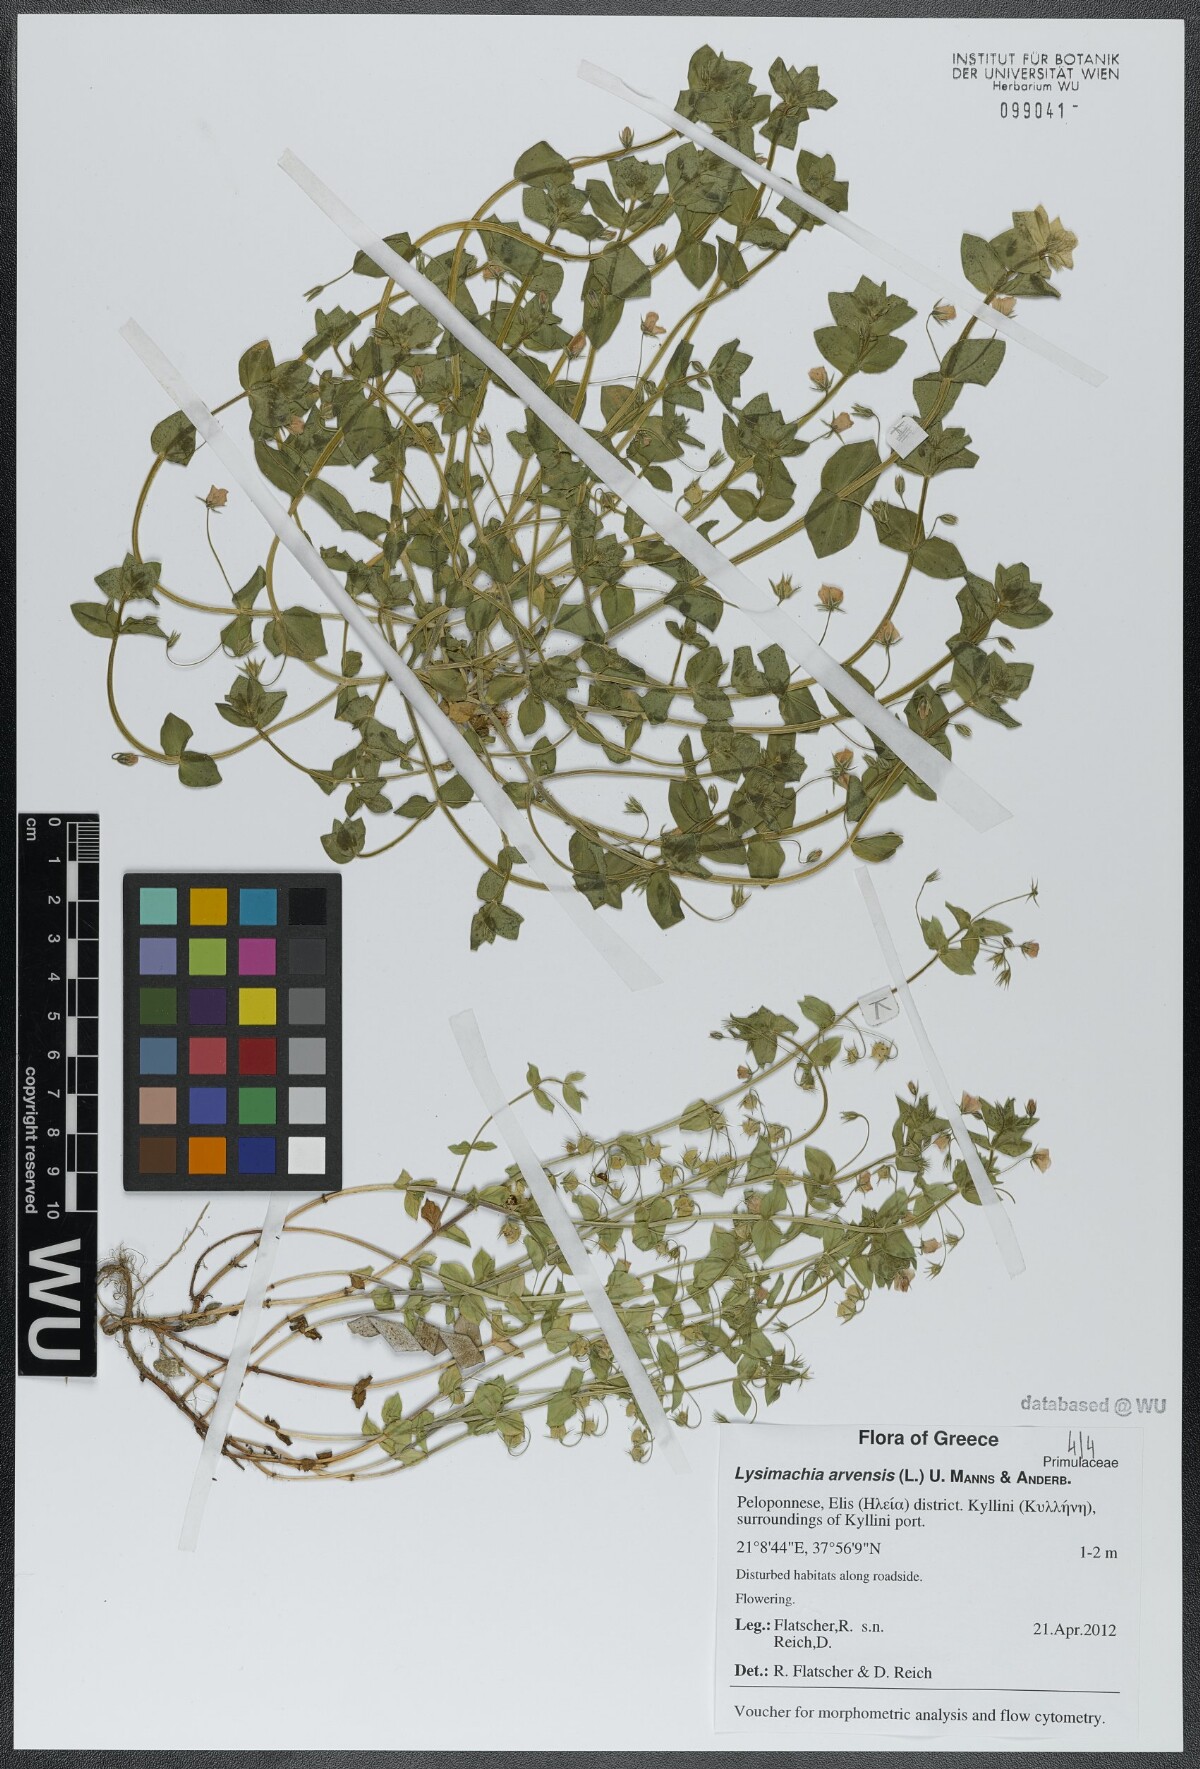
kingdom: Plantae
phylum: Tracheophyta
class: Magnoliopsida
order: Ericales
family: Primulaceae
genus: Lysimachia
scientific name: Lysimachia arvensis
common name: Scarlet pimpernel
